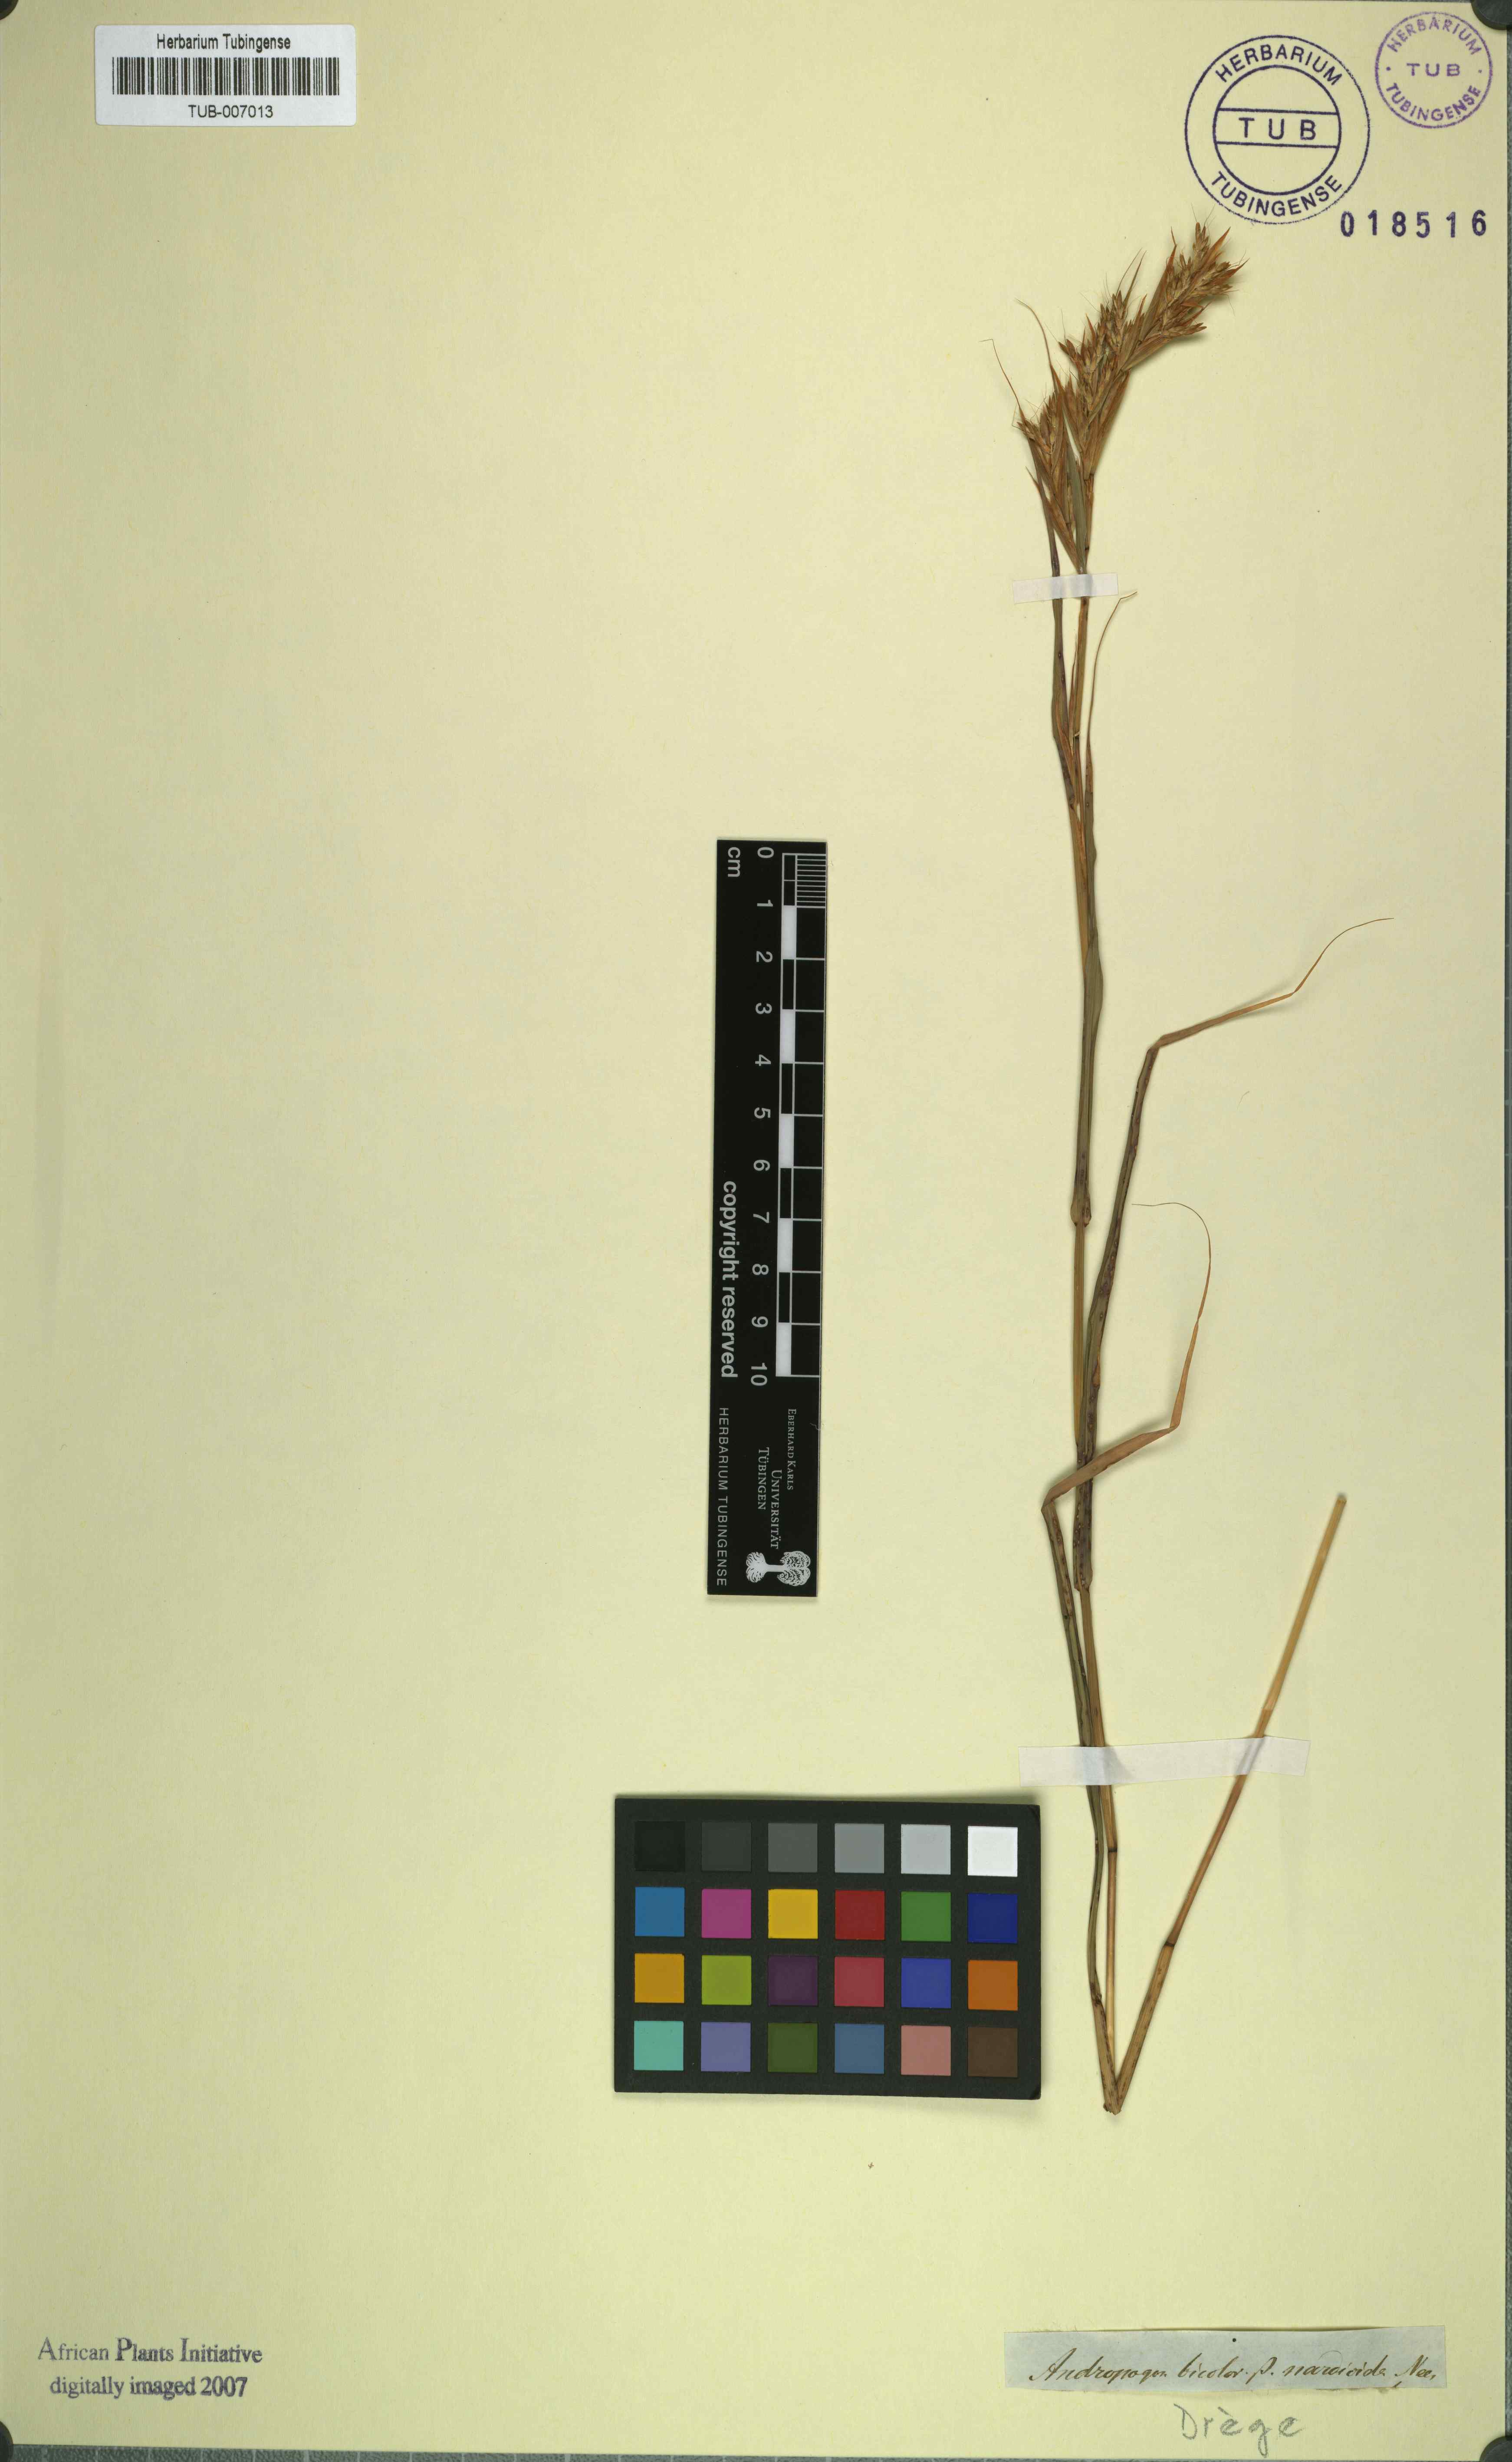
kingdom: Plantae
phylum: Tracheophyta
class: Liliopsida
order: Poales
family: Poaceae
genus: Hyparrhenia
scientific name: Hyparrhenia dichroa
